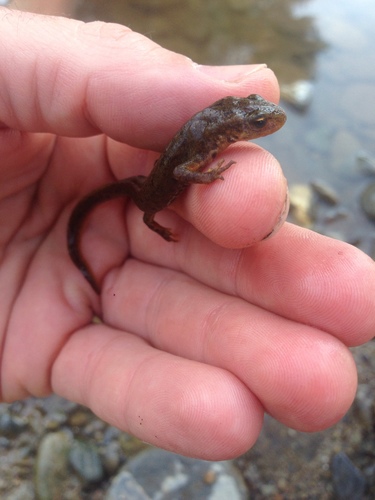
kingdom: Animalia
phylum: Chordata
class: Amphibia
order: Caudata
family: Salamandridae
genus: Lissotriton
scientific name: Lissotriton boscai
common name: Bosca's newt
